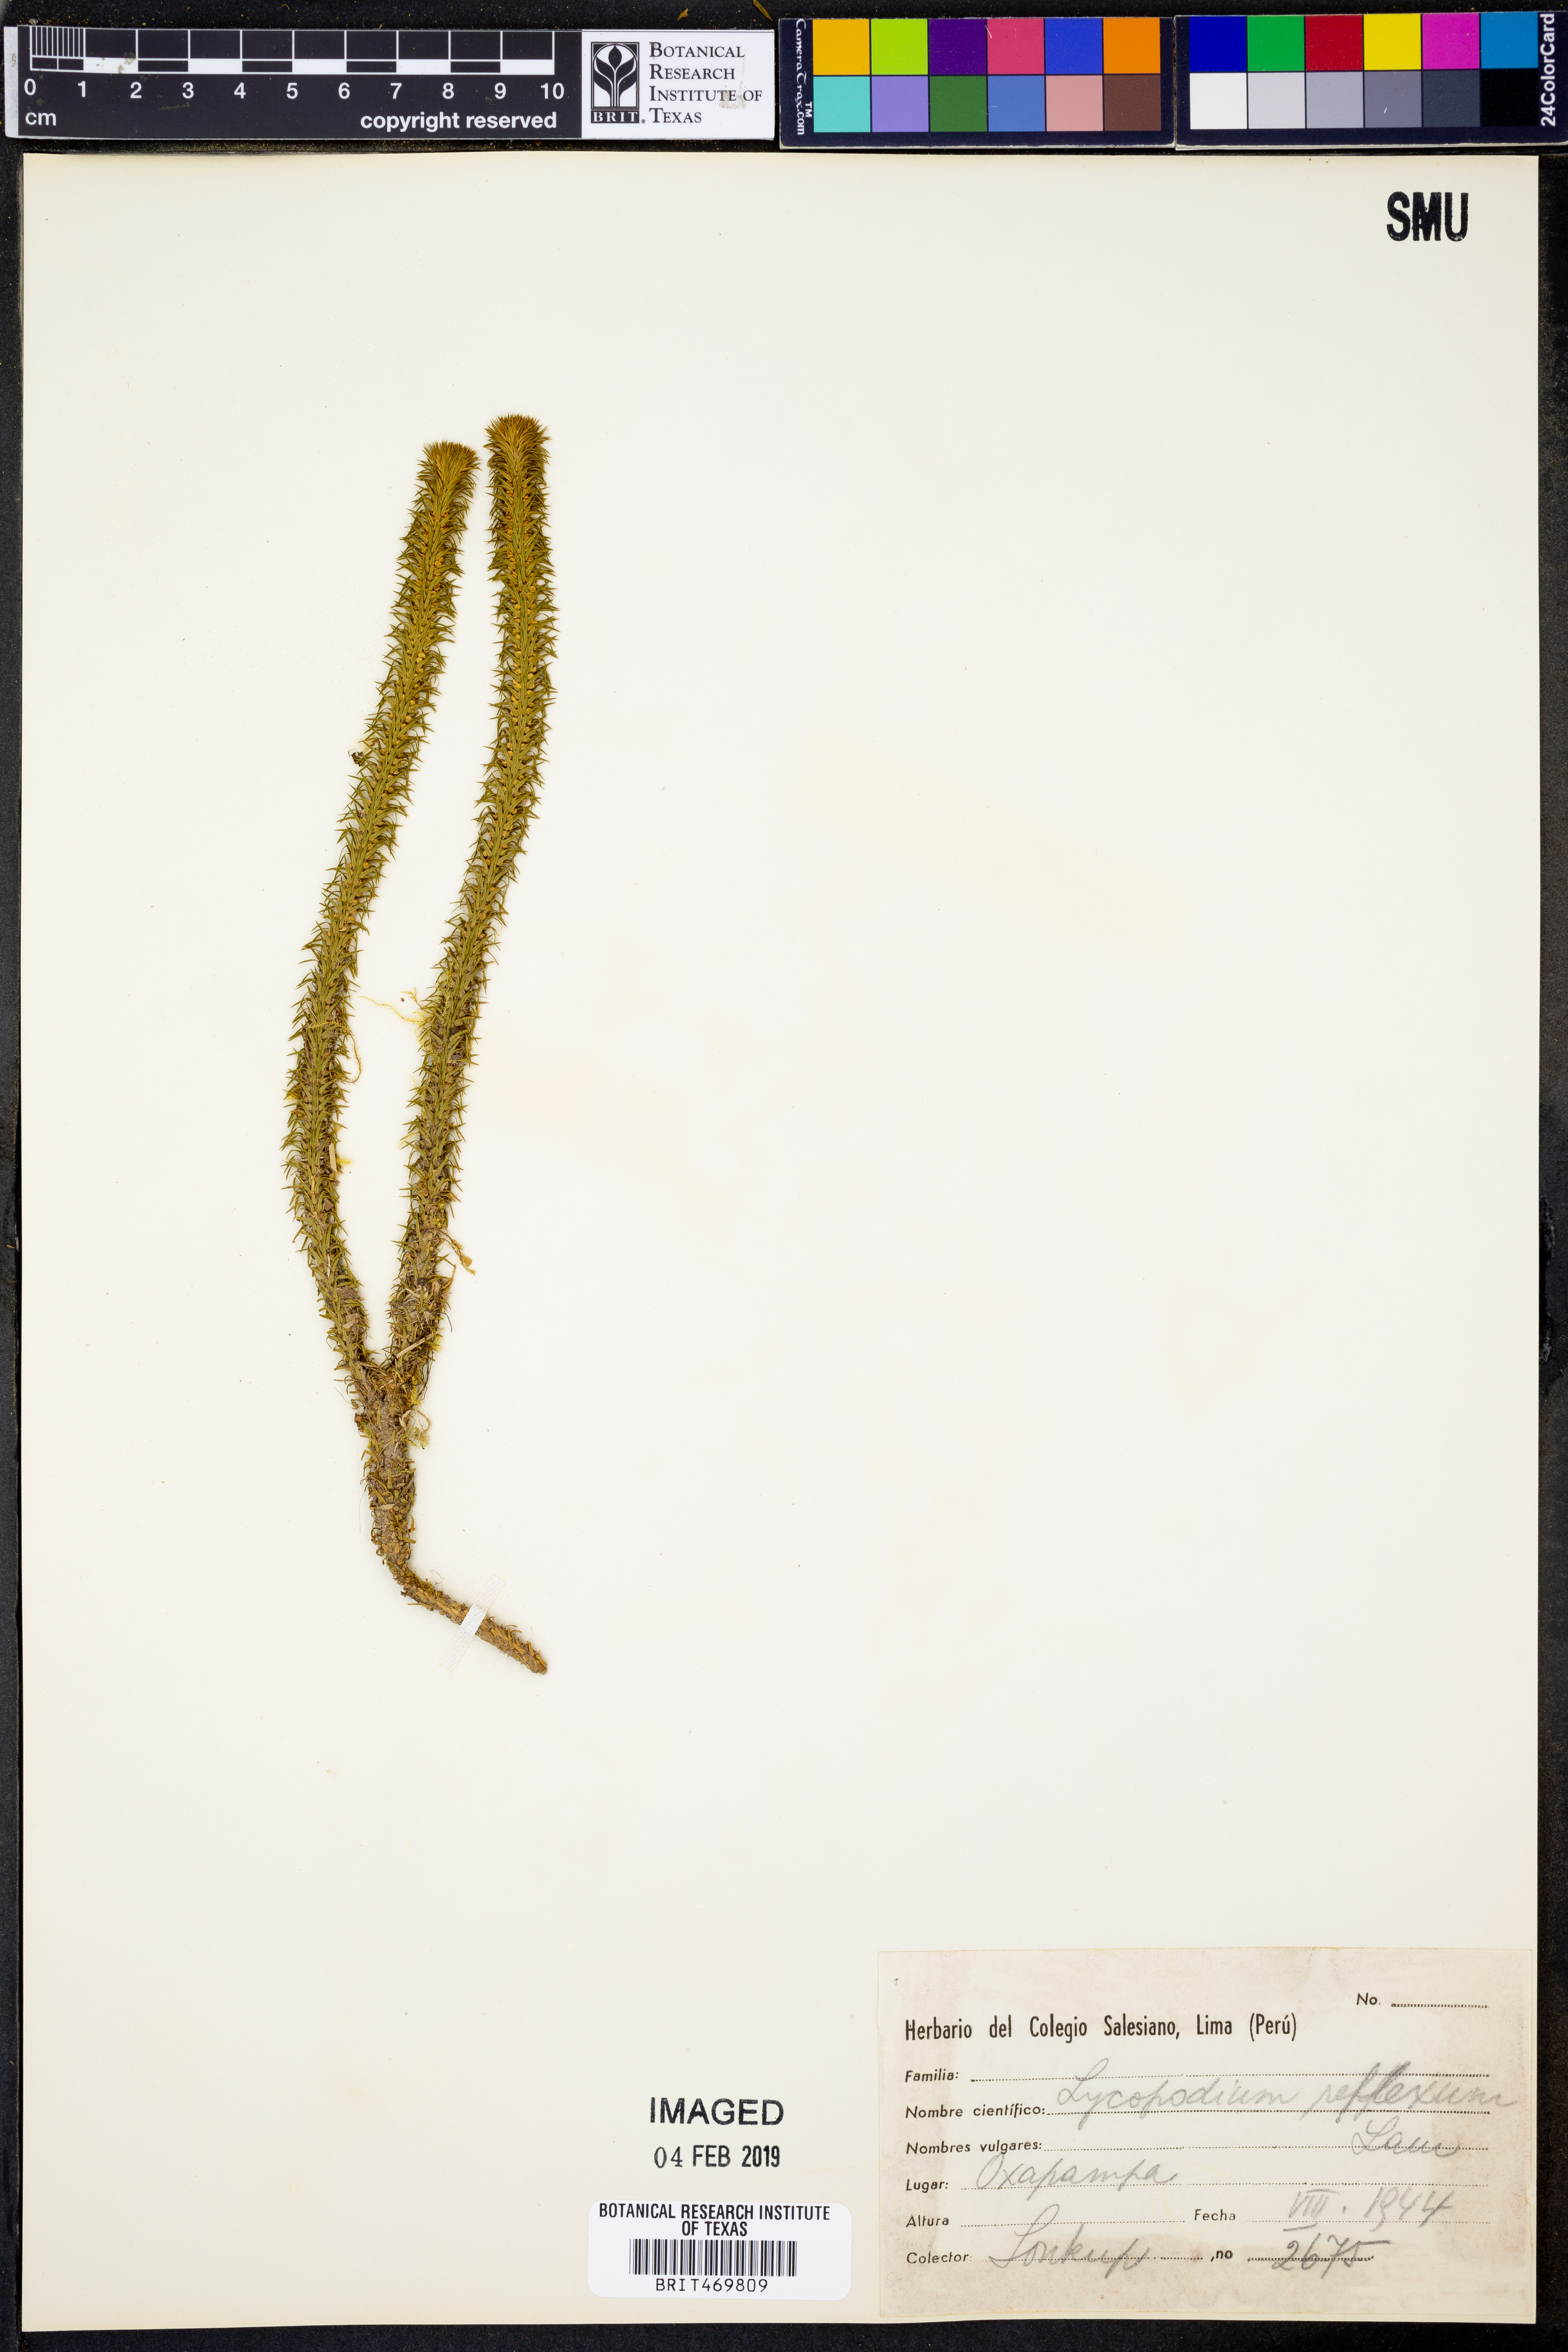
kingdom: Plantae
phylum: Tracheophyta
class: Lycopodiopsida
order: Lycopodiales
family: Lycopodiaceae
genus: Phlegmariurus
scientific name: Phlegmariurus reflexus
